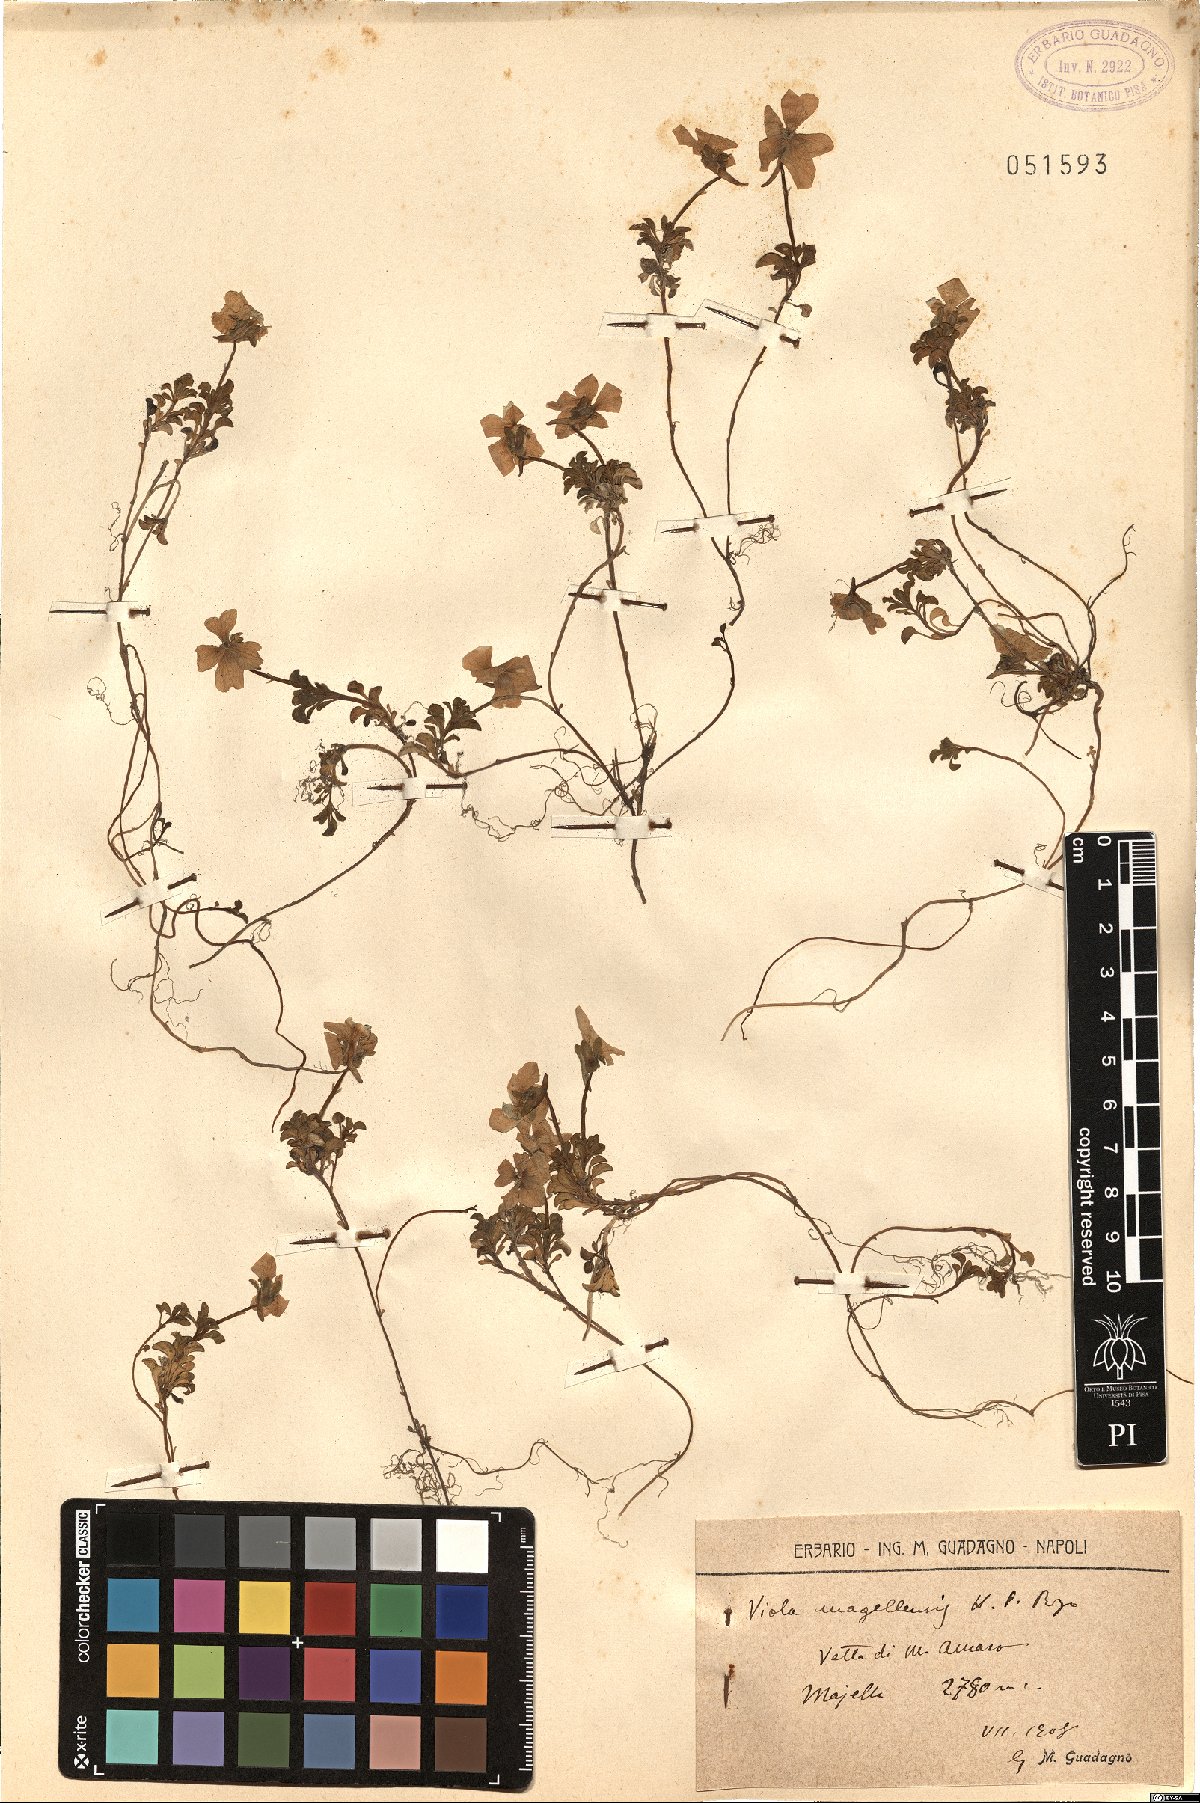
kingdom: Plantae
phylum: Tracheophyta
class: Magnoliopsida
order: Malpighiales
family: Violaceae
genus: Viola
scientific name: Viola magellensis
